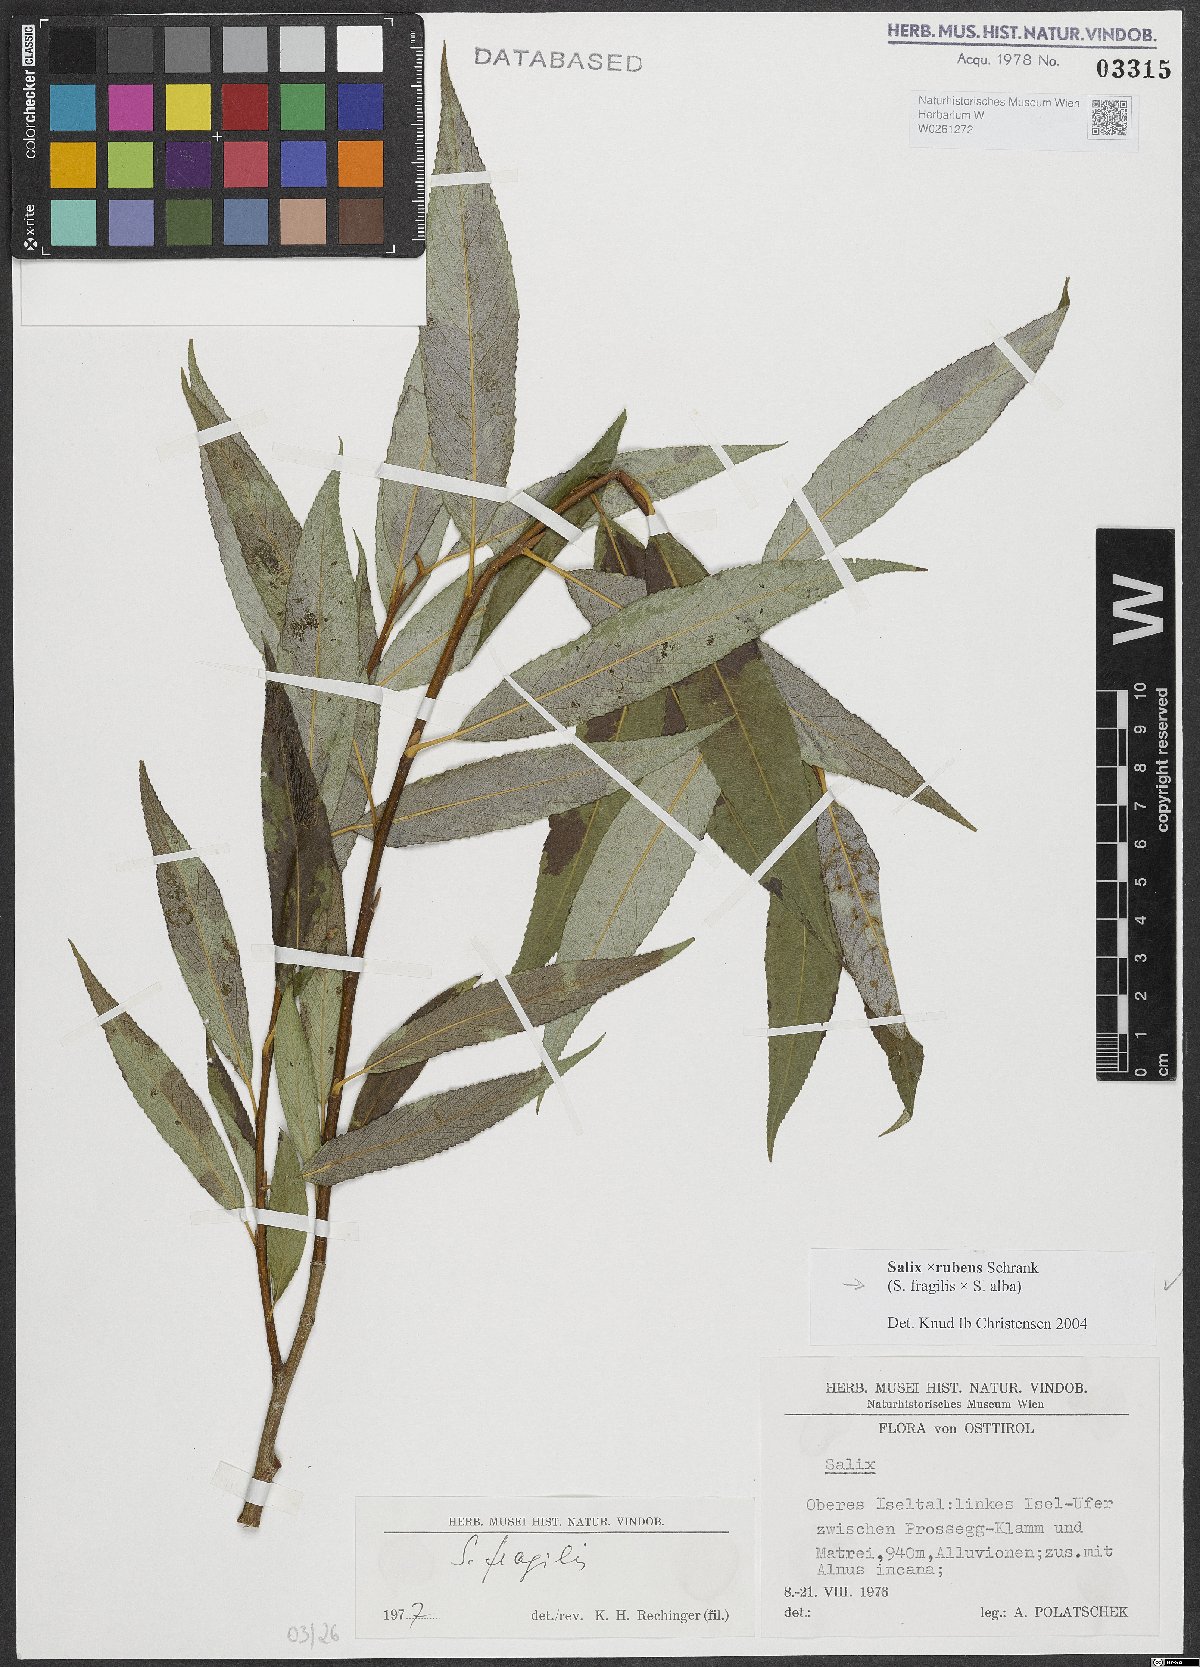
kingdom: Plantae
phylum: Tracheophyta
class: Magnoliopsida
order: Malpighiales
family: Salicaceae
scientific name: Salicaceae
